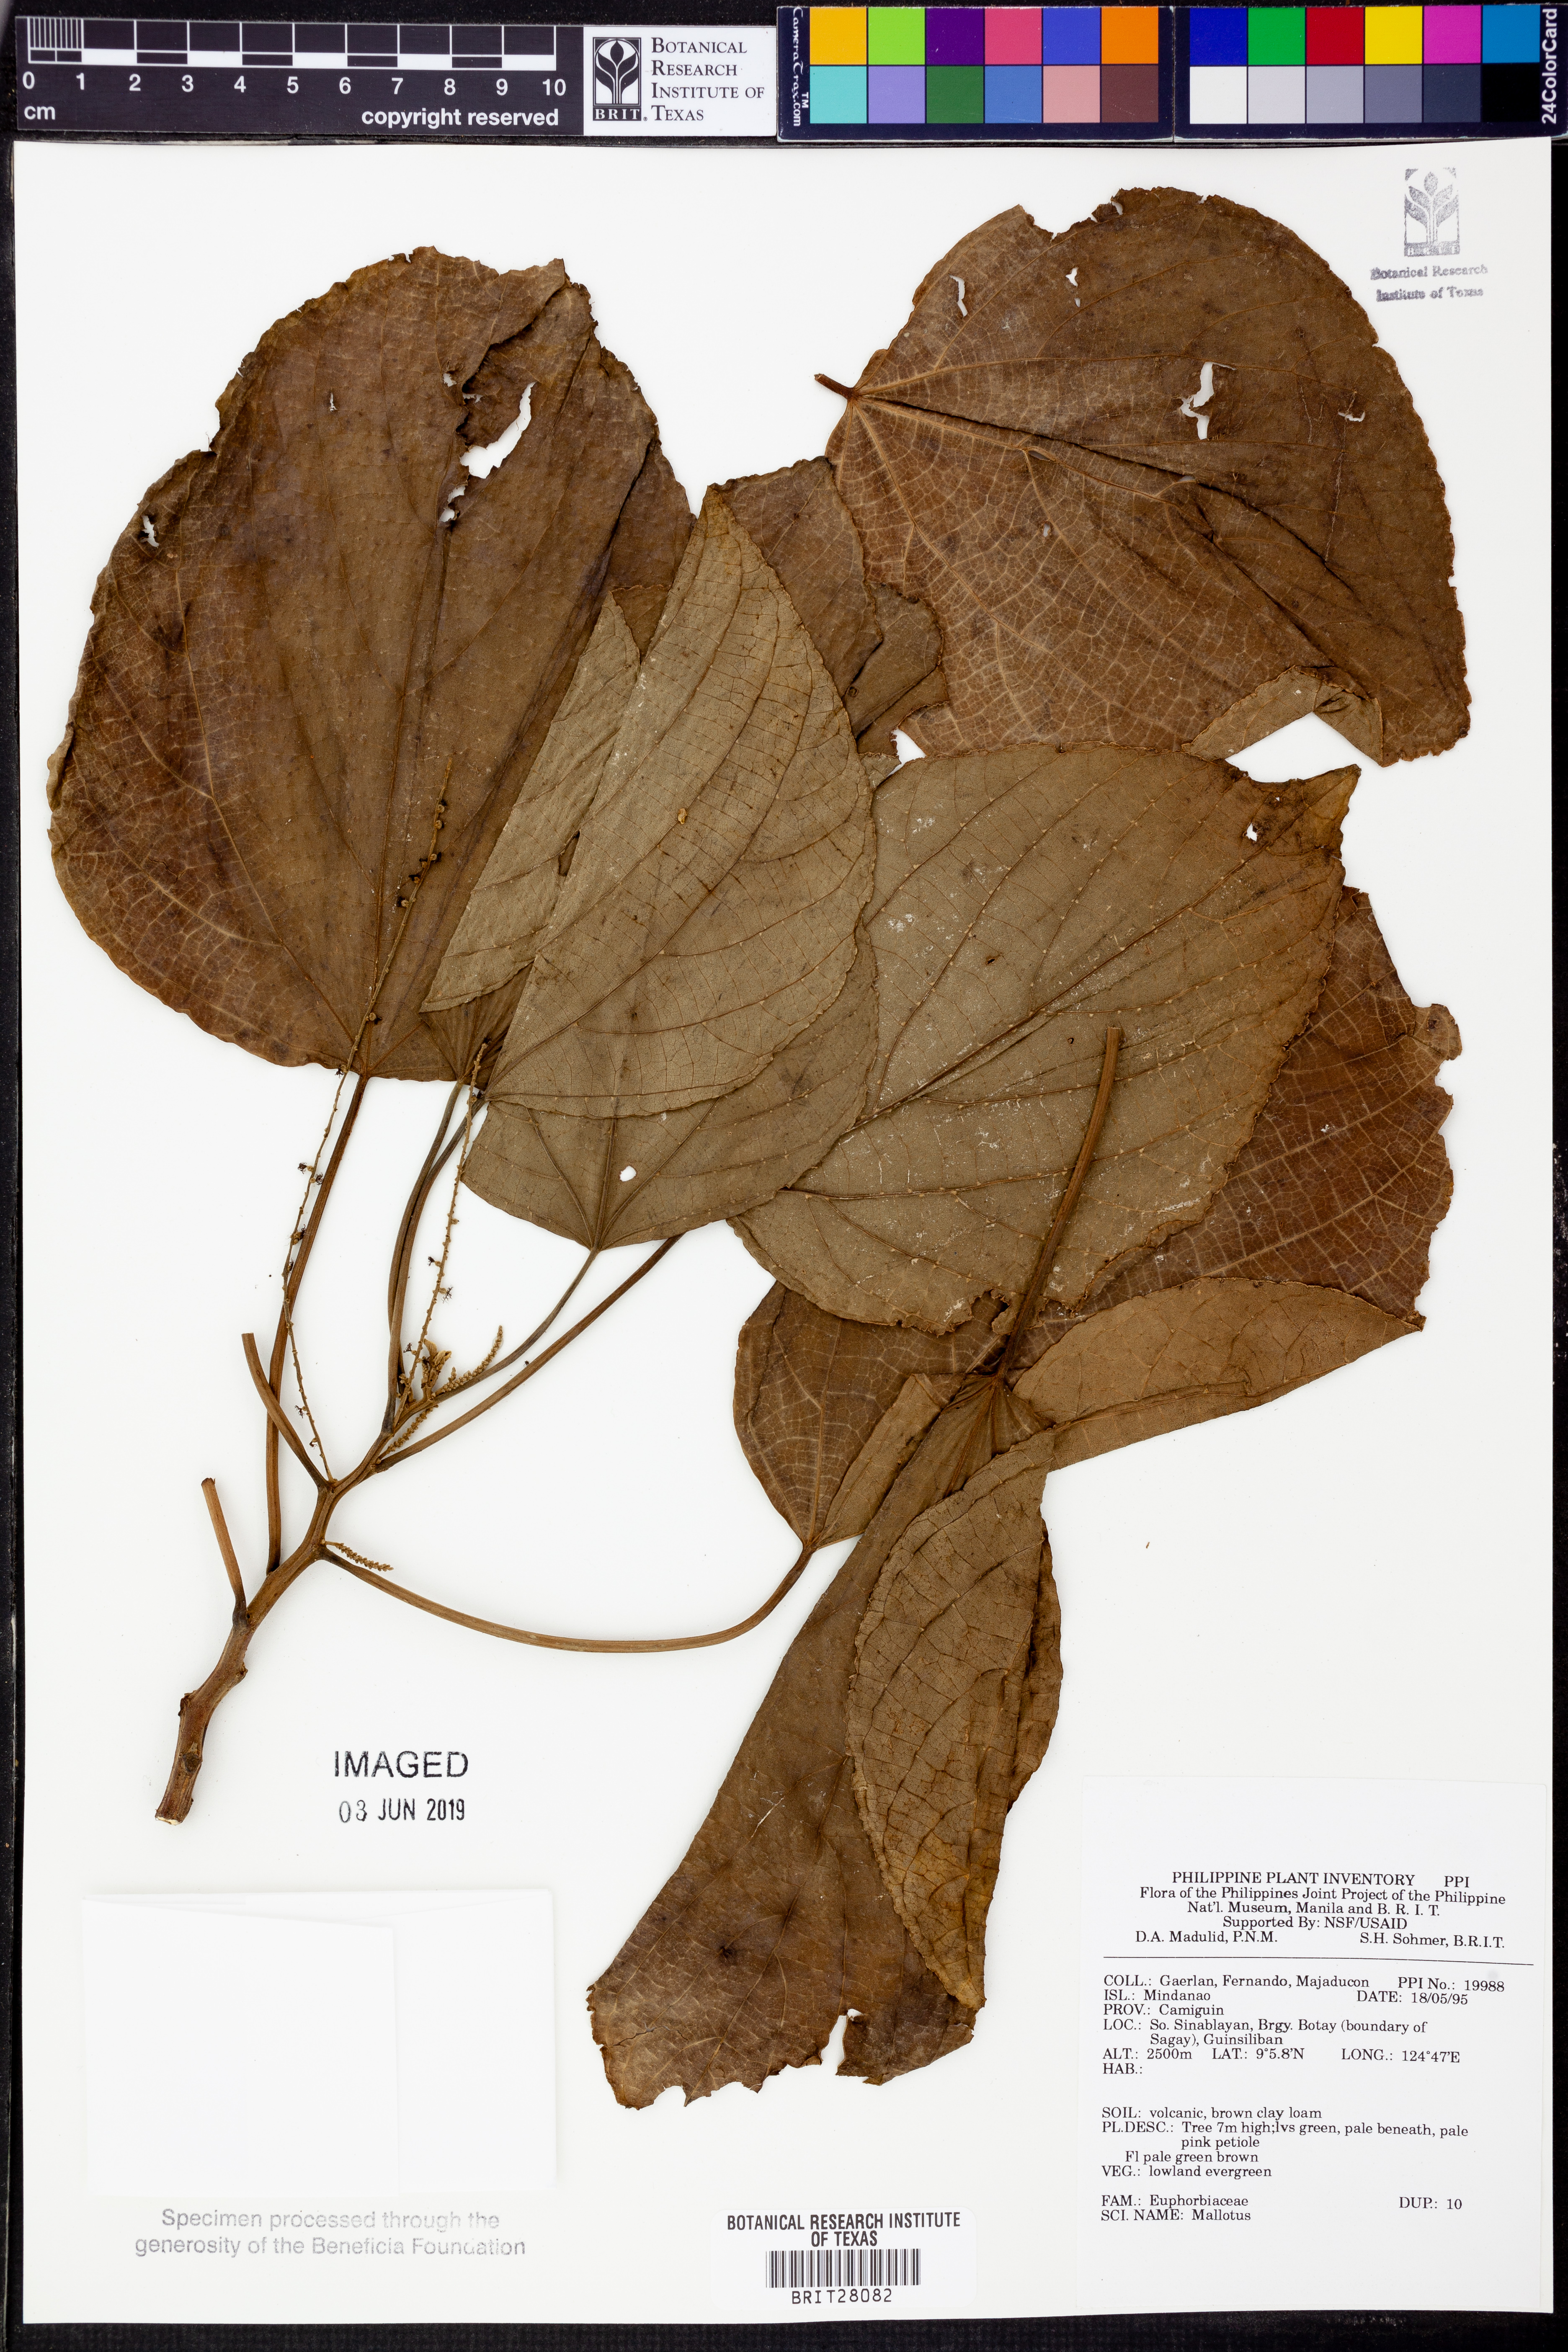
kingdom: Plantae
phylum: Tracheophyta
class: Magnoliopsida
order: Malpighiales
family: Euphorbiaceae
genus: Mallotus
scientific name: Mallotus
